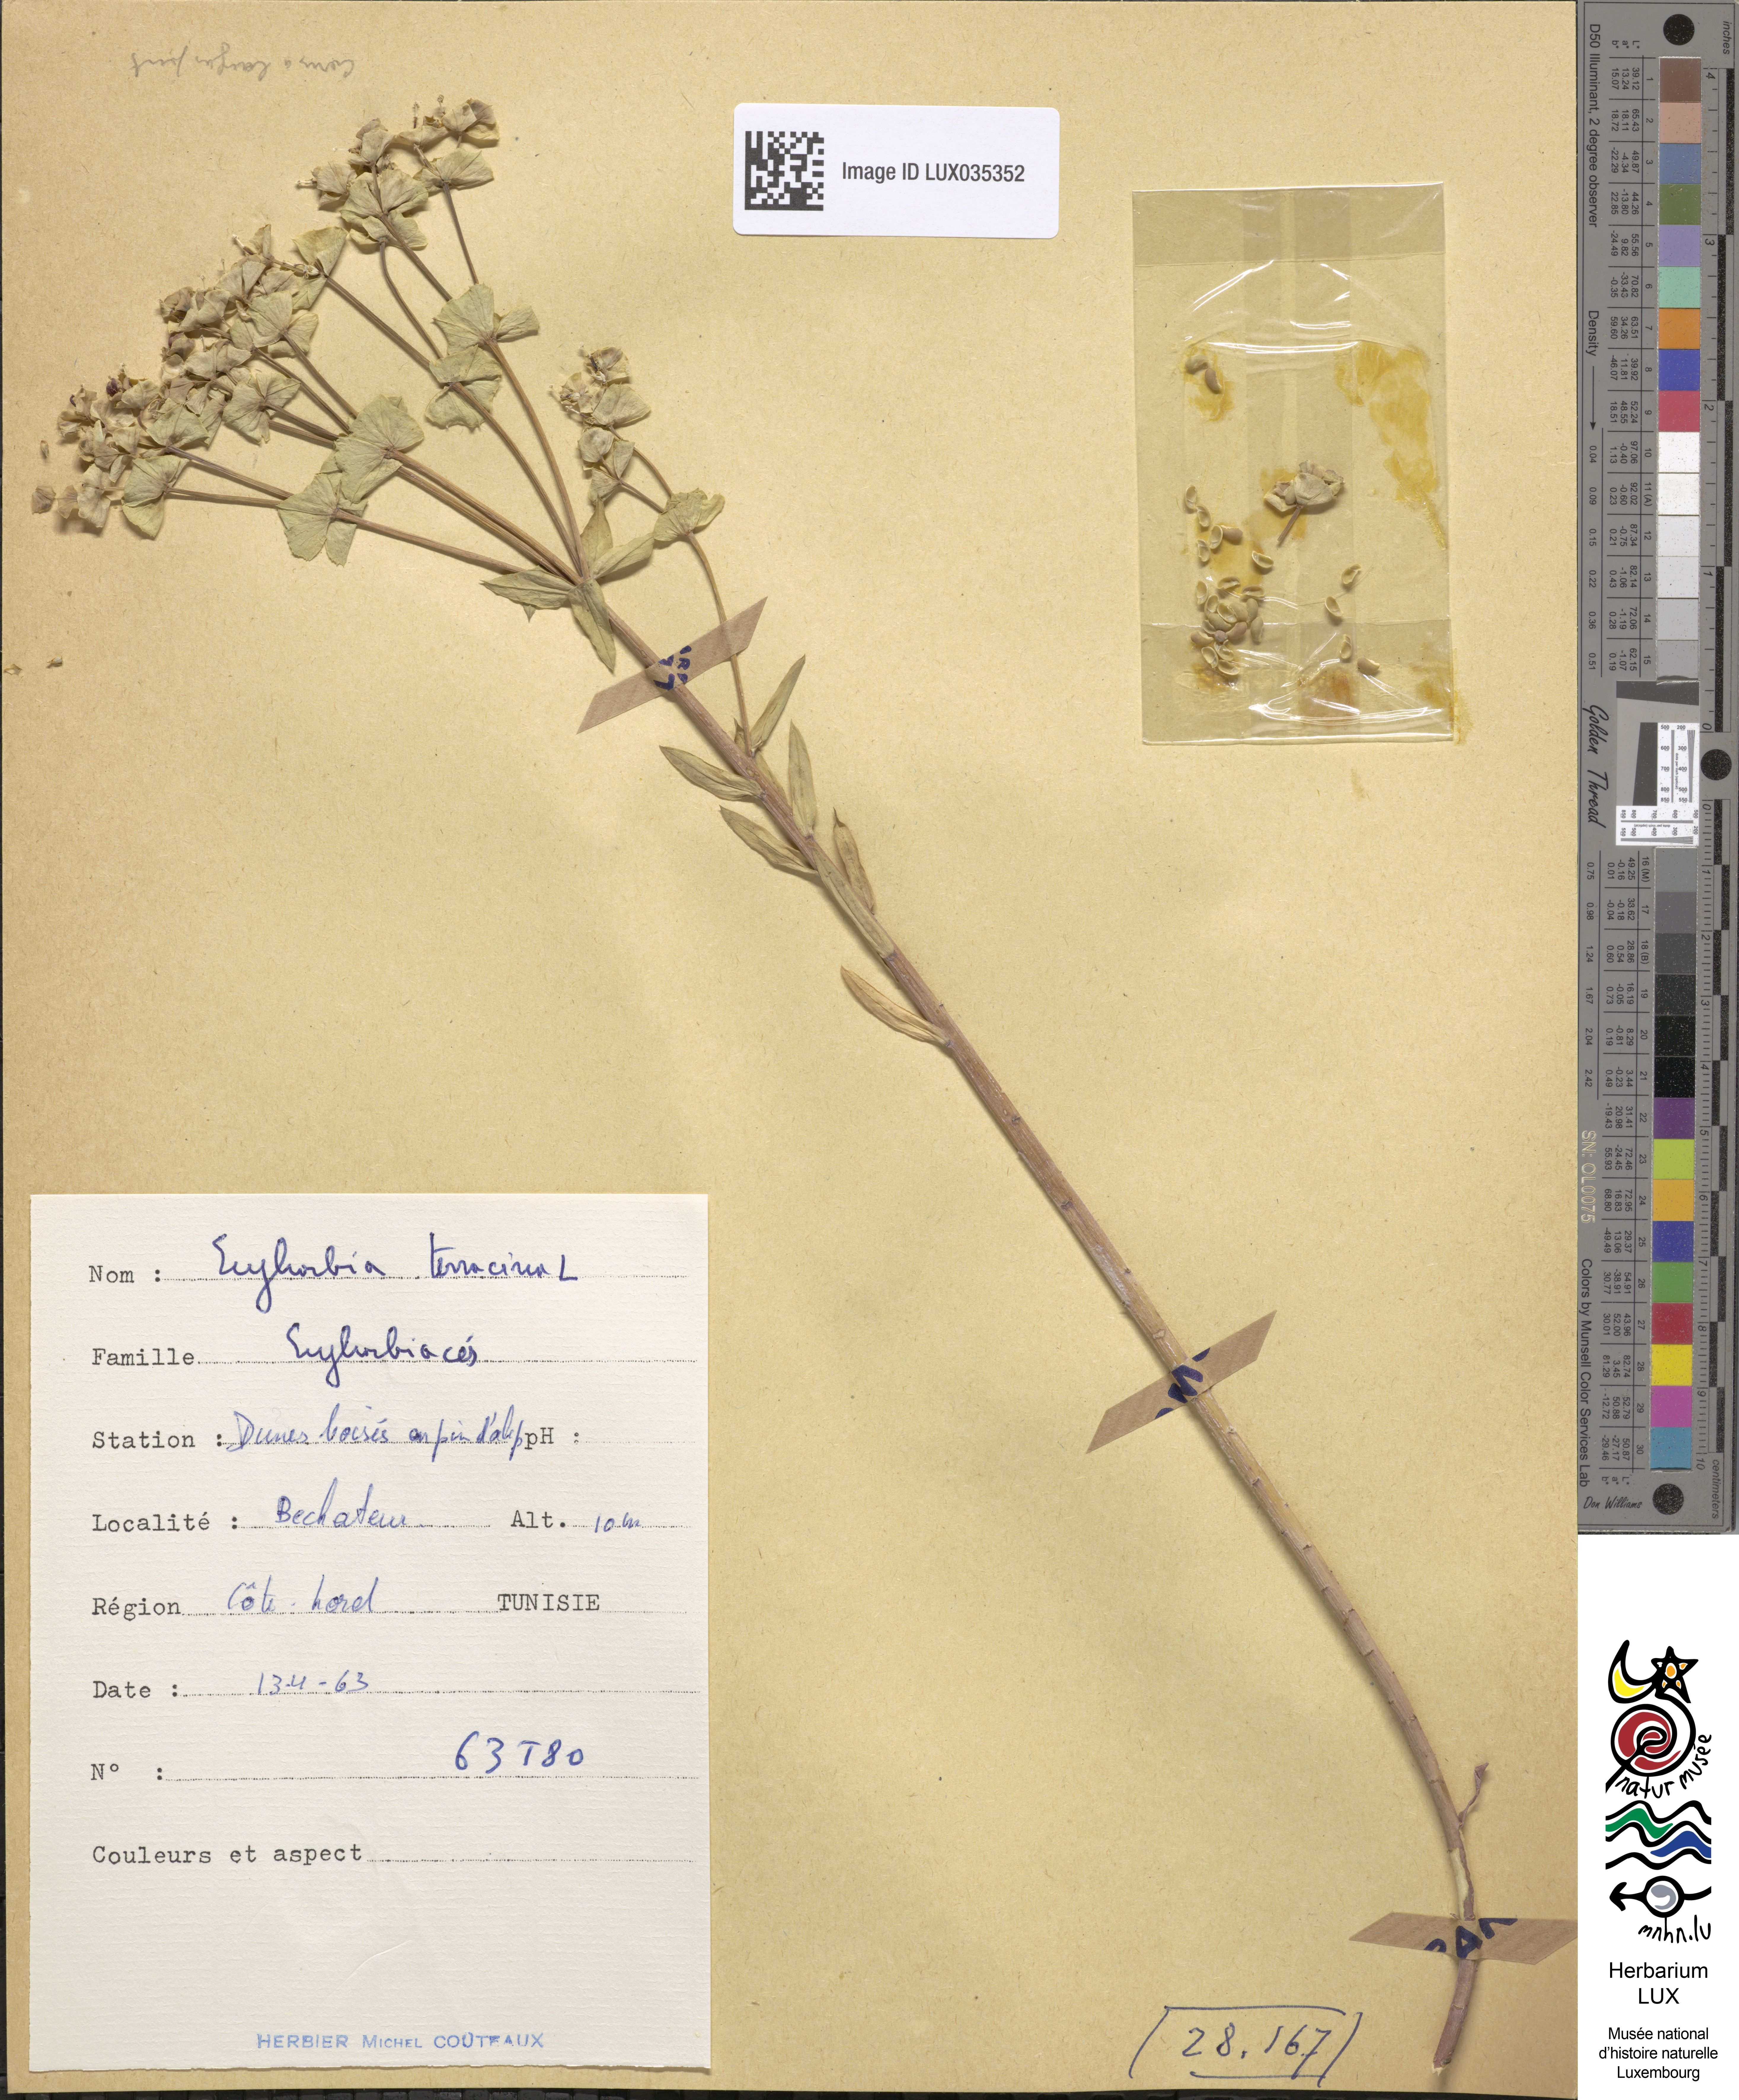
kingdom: Plantae
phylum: Tracheophyta
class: Magnoliopsida
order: Malpighiales
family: Euphorbiaceae
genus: Euphorbia
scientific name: Euphorbia terracina
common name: Geraldton carnation weed
